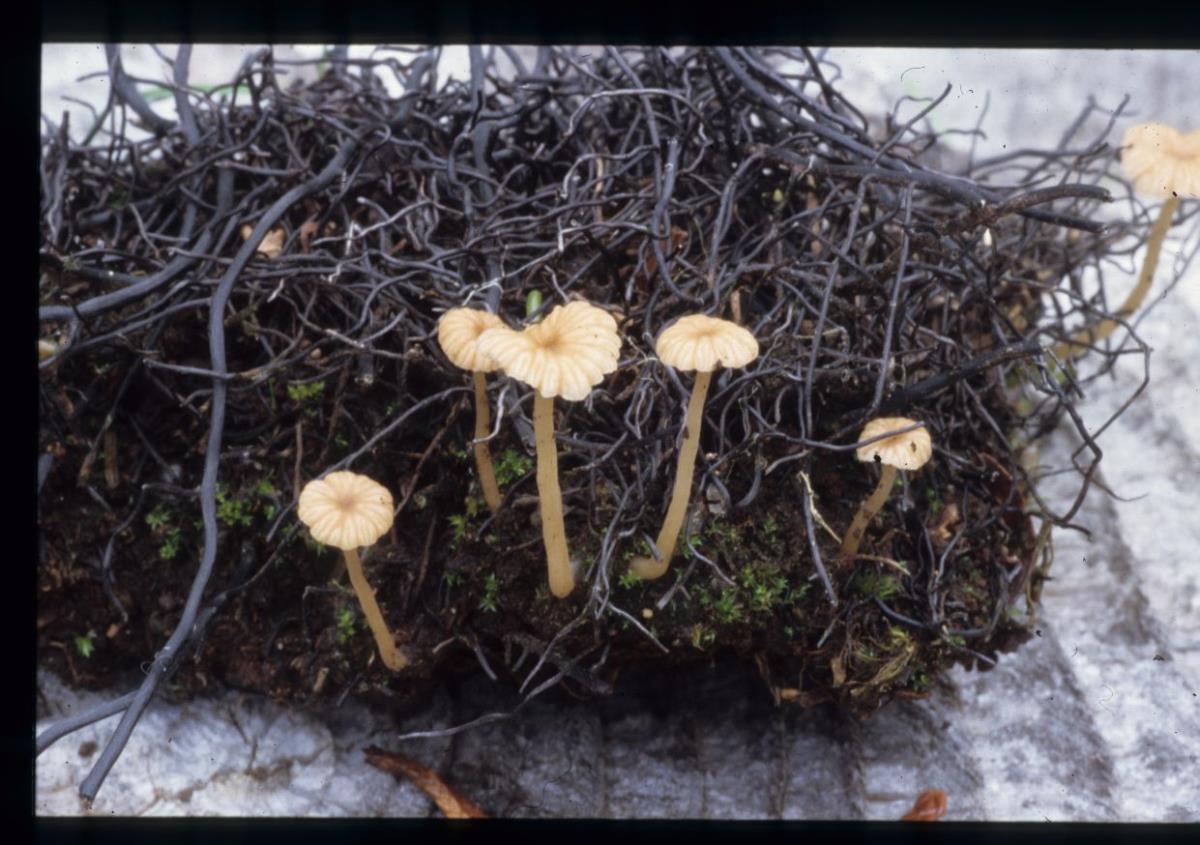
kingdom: Fungi
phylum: Basidiomycota
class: Agaricomycetes
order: Agaricales
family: Hydnangiaceae
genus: Laccaria
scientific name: Laccaria
